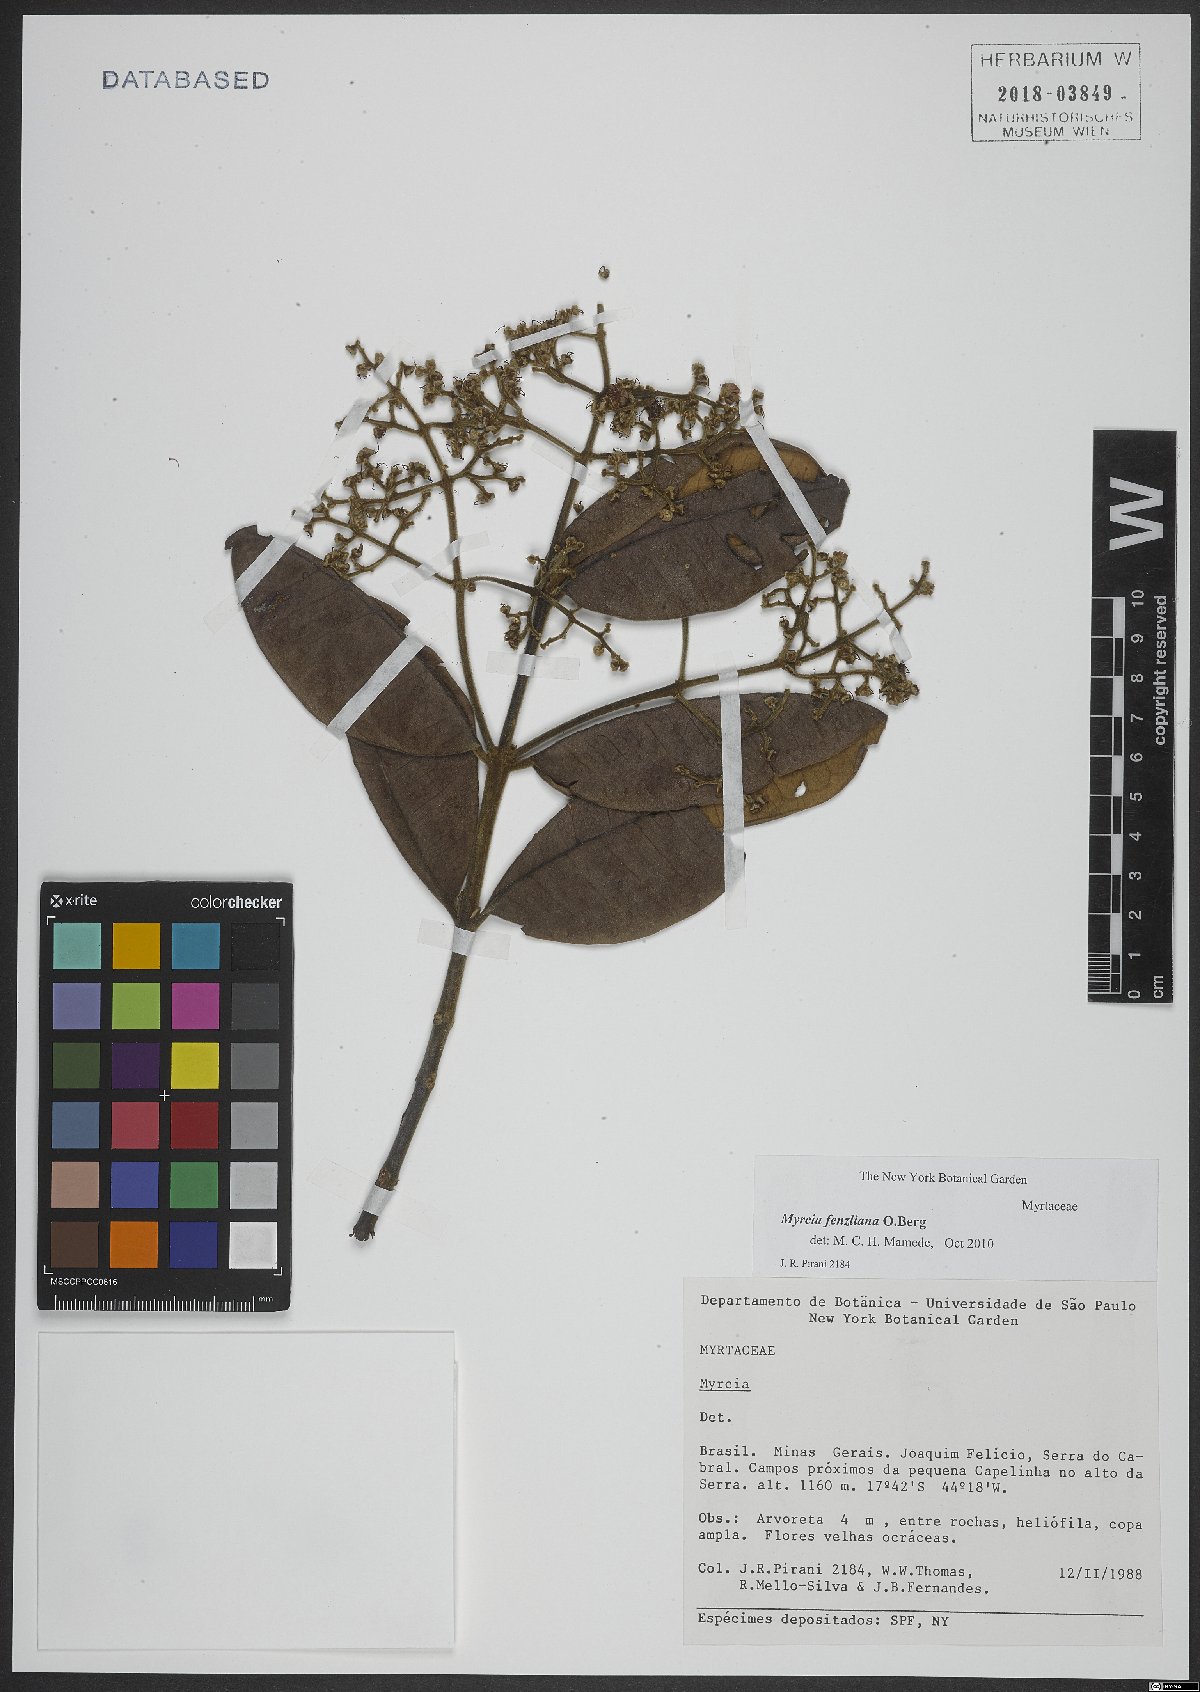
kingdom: Plantae
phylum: Tracheophyta
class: Magnoliopsida
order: Myrtales
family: Myrtaceae
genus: Myrcia
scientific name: Myrcia fenzliana
